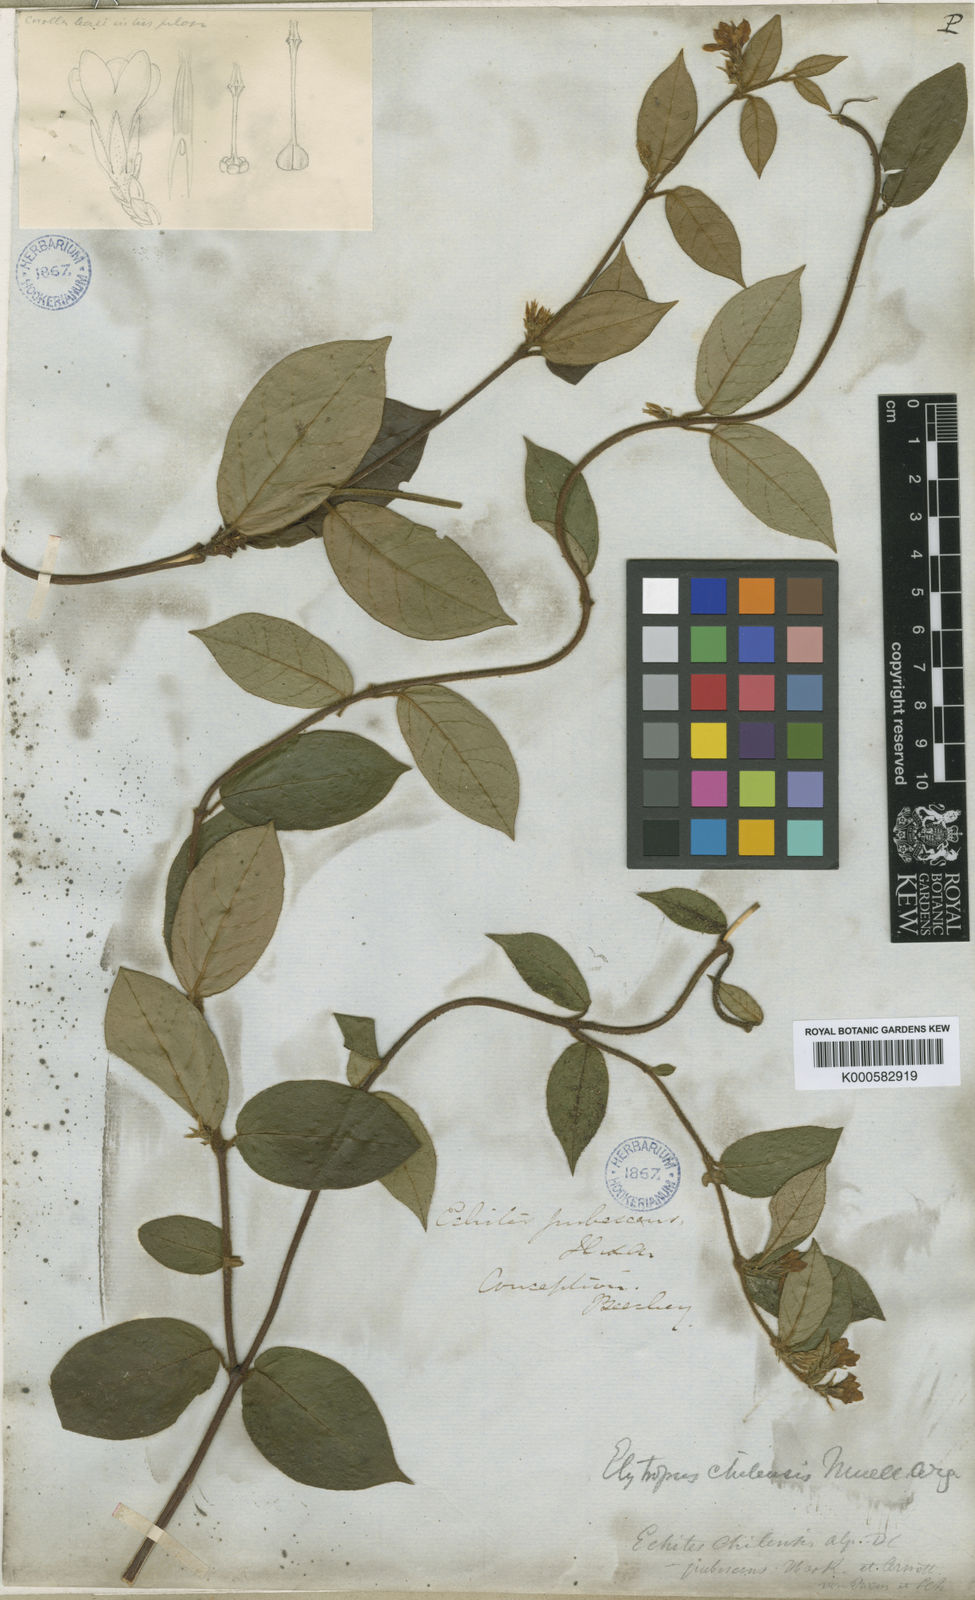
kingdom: Plantae
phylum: Tracheophyta
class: Magnoliopsida
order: Gentianales
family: Apocynaceae
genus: Elytropus
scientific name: Elytropus
